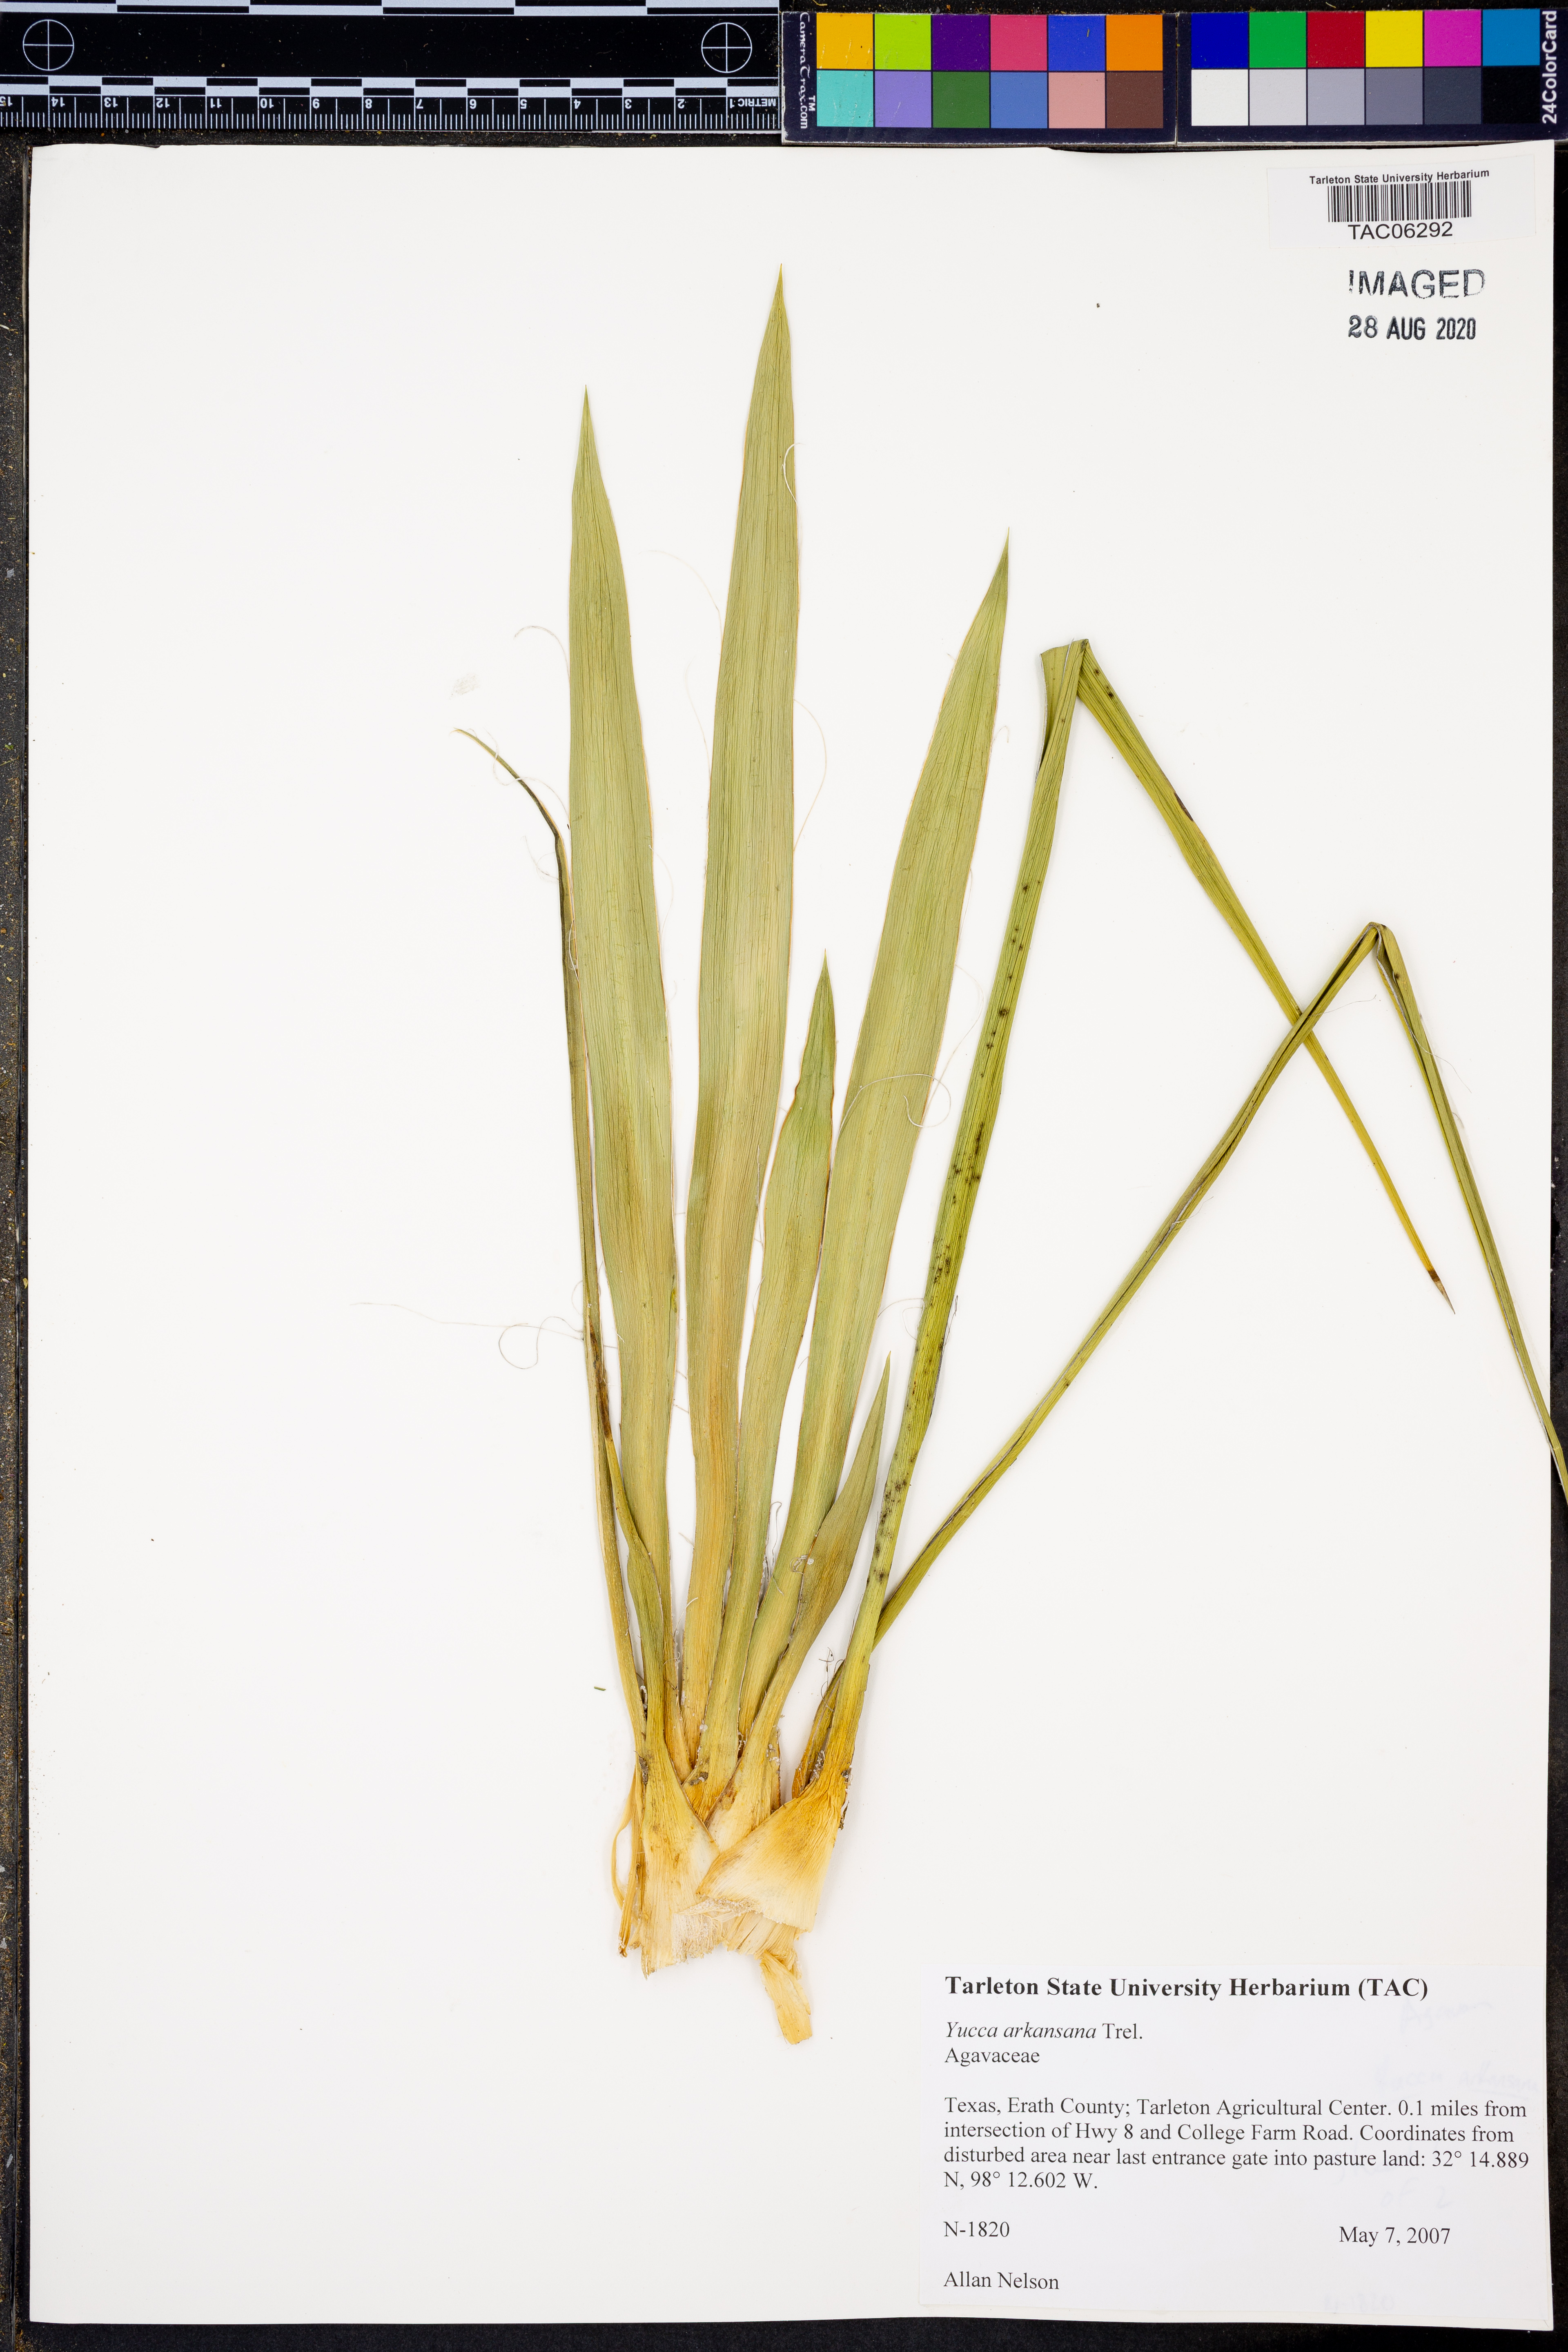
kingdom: Plantae
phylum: Tracheophyta
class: Liliopsida
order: Asparagales
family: Asparagaceae
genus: Yucca
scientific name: Yucca arkansana
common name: Arkansas yucca
